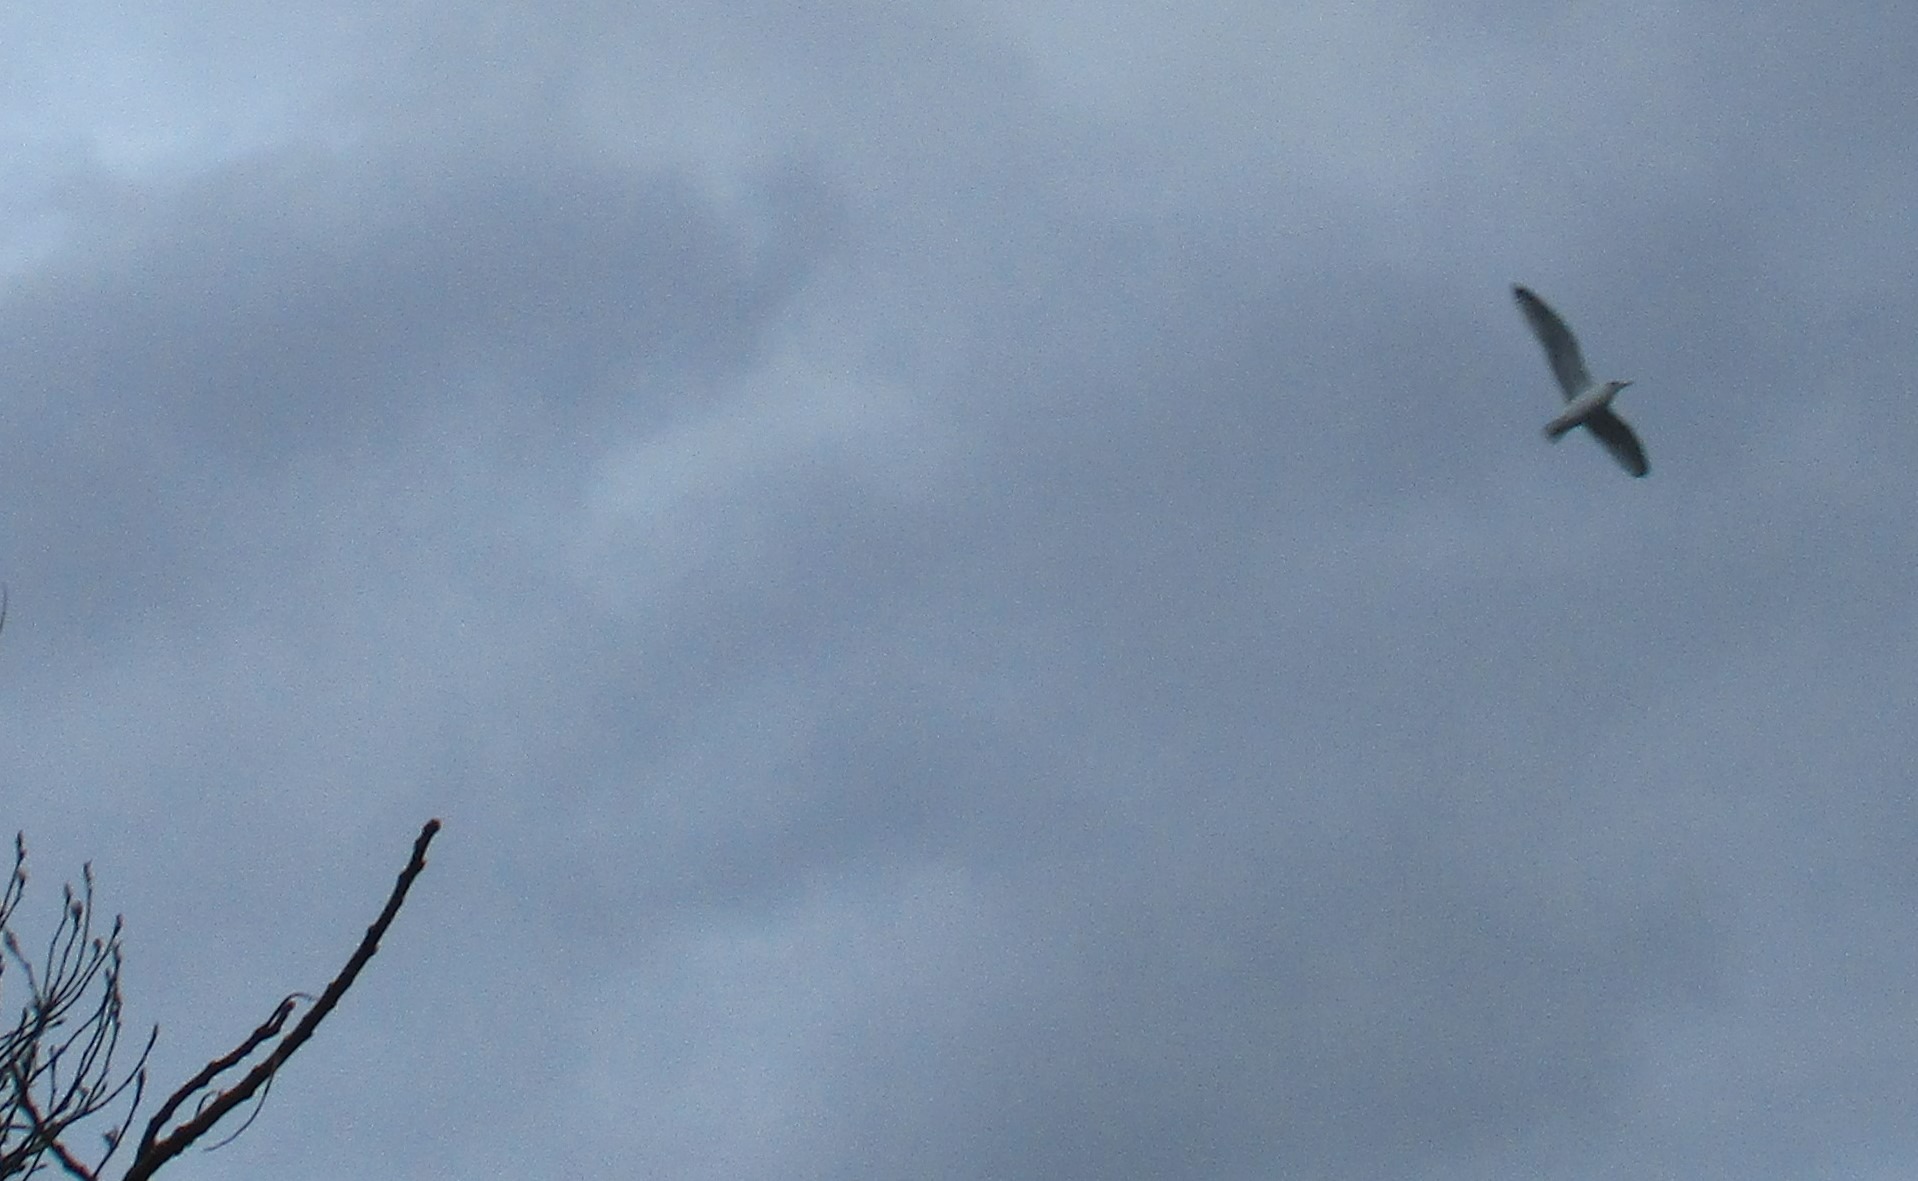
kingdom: Animalia
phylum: Chordata
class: Aves
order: Charadriiformes
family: Laridae
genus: Larus
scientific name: Larus argentatus
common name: Sølvmåge
